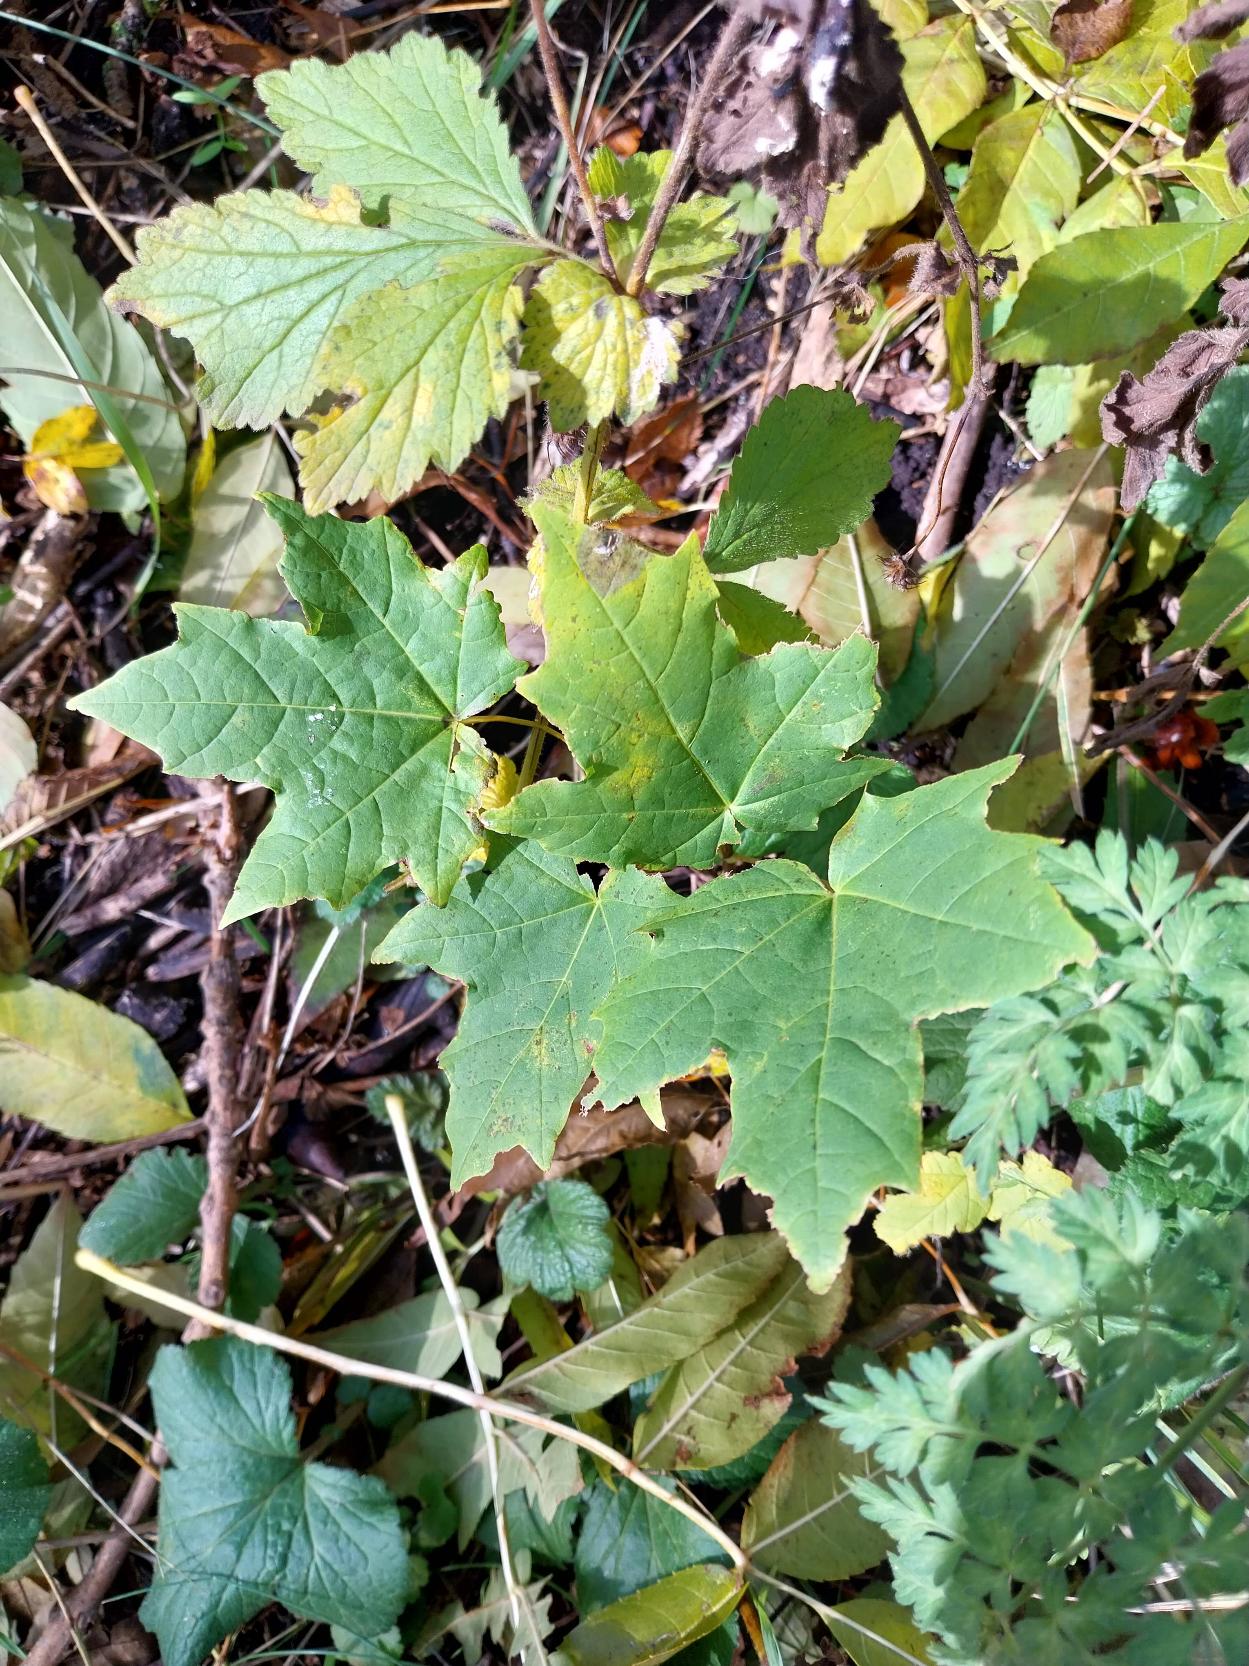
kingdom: Plantae
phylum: Tracheophyta
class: Magnoliopsida
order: Sapindales
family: Sapindaceae
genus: Acer
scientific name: Acer platanoides
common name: Spids-løn
